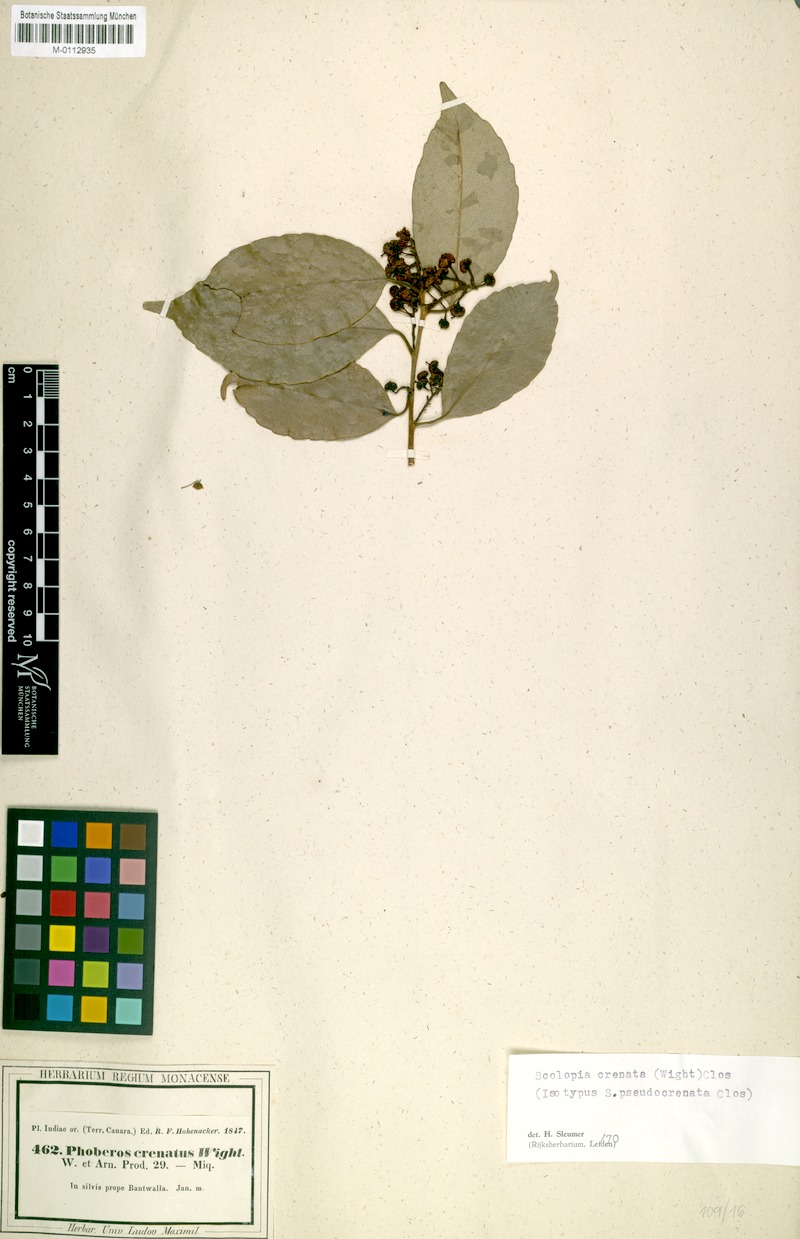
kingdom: Plantae
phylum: Tracheophyta
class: Magnoliopsida
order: Malpighiales
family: Salicaceae
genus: Scolopia
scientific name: Scolopia crenata
